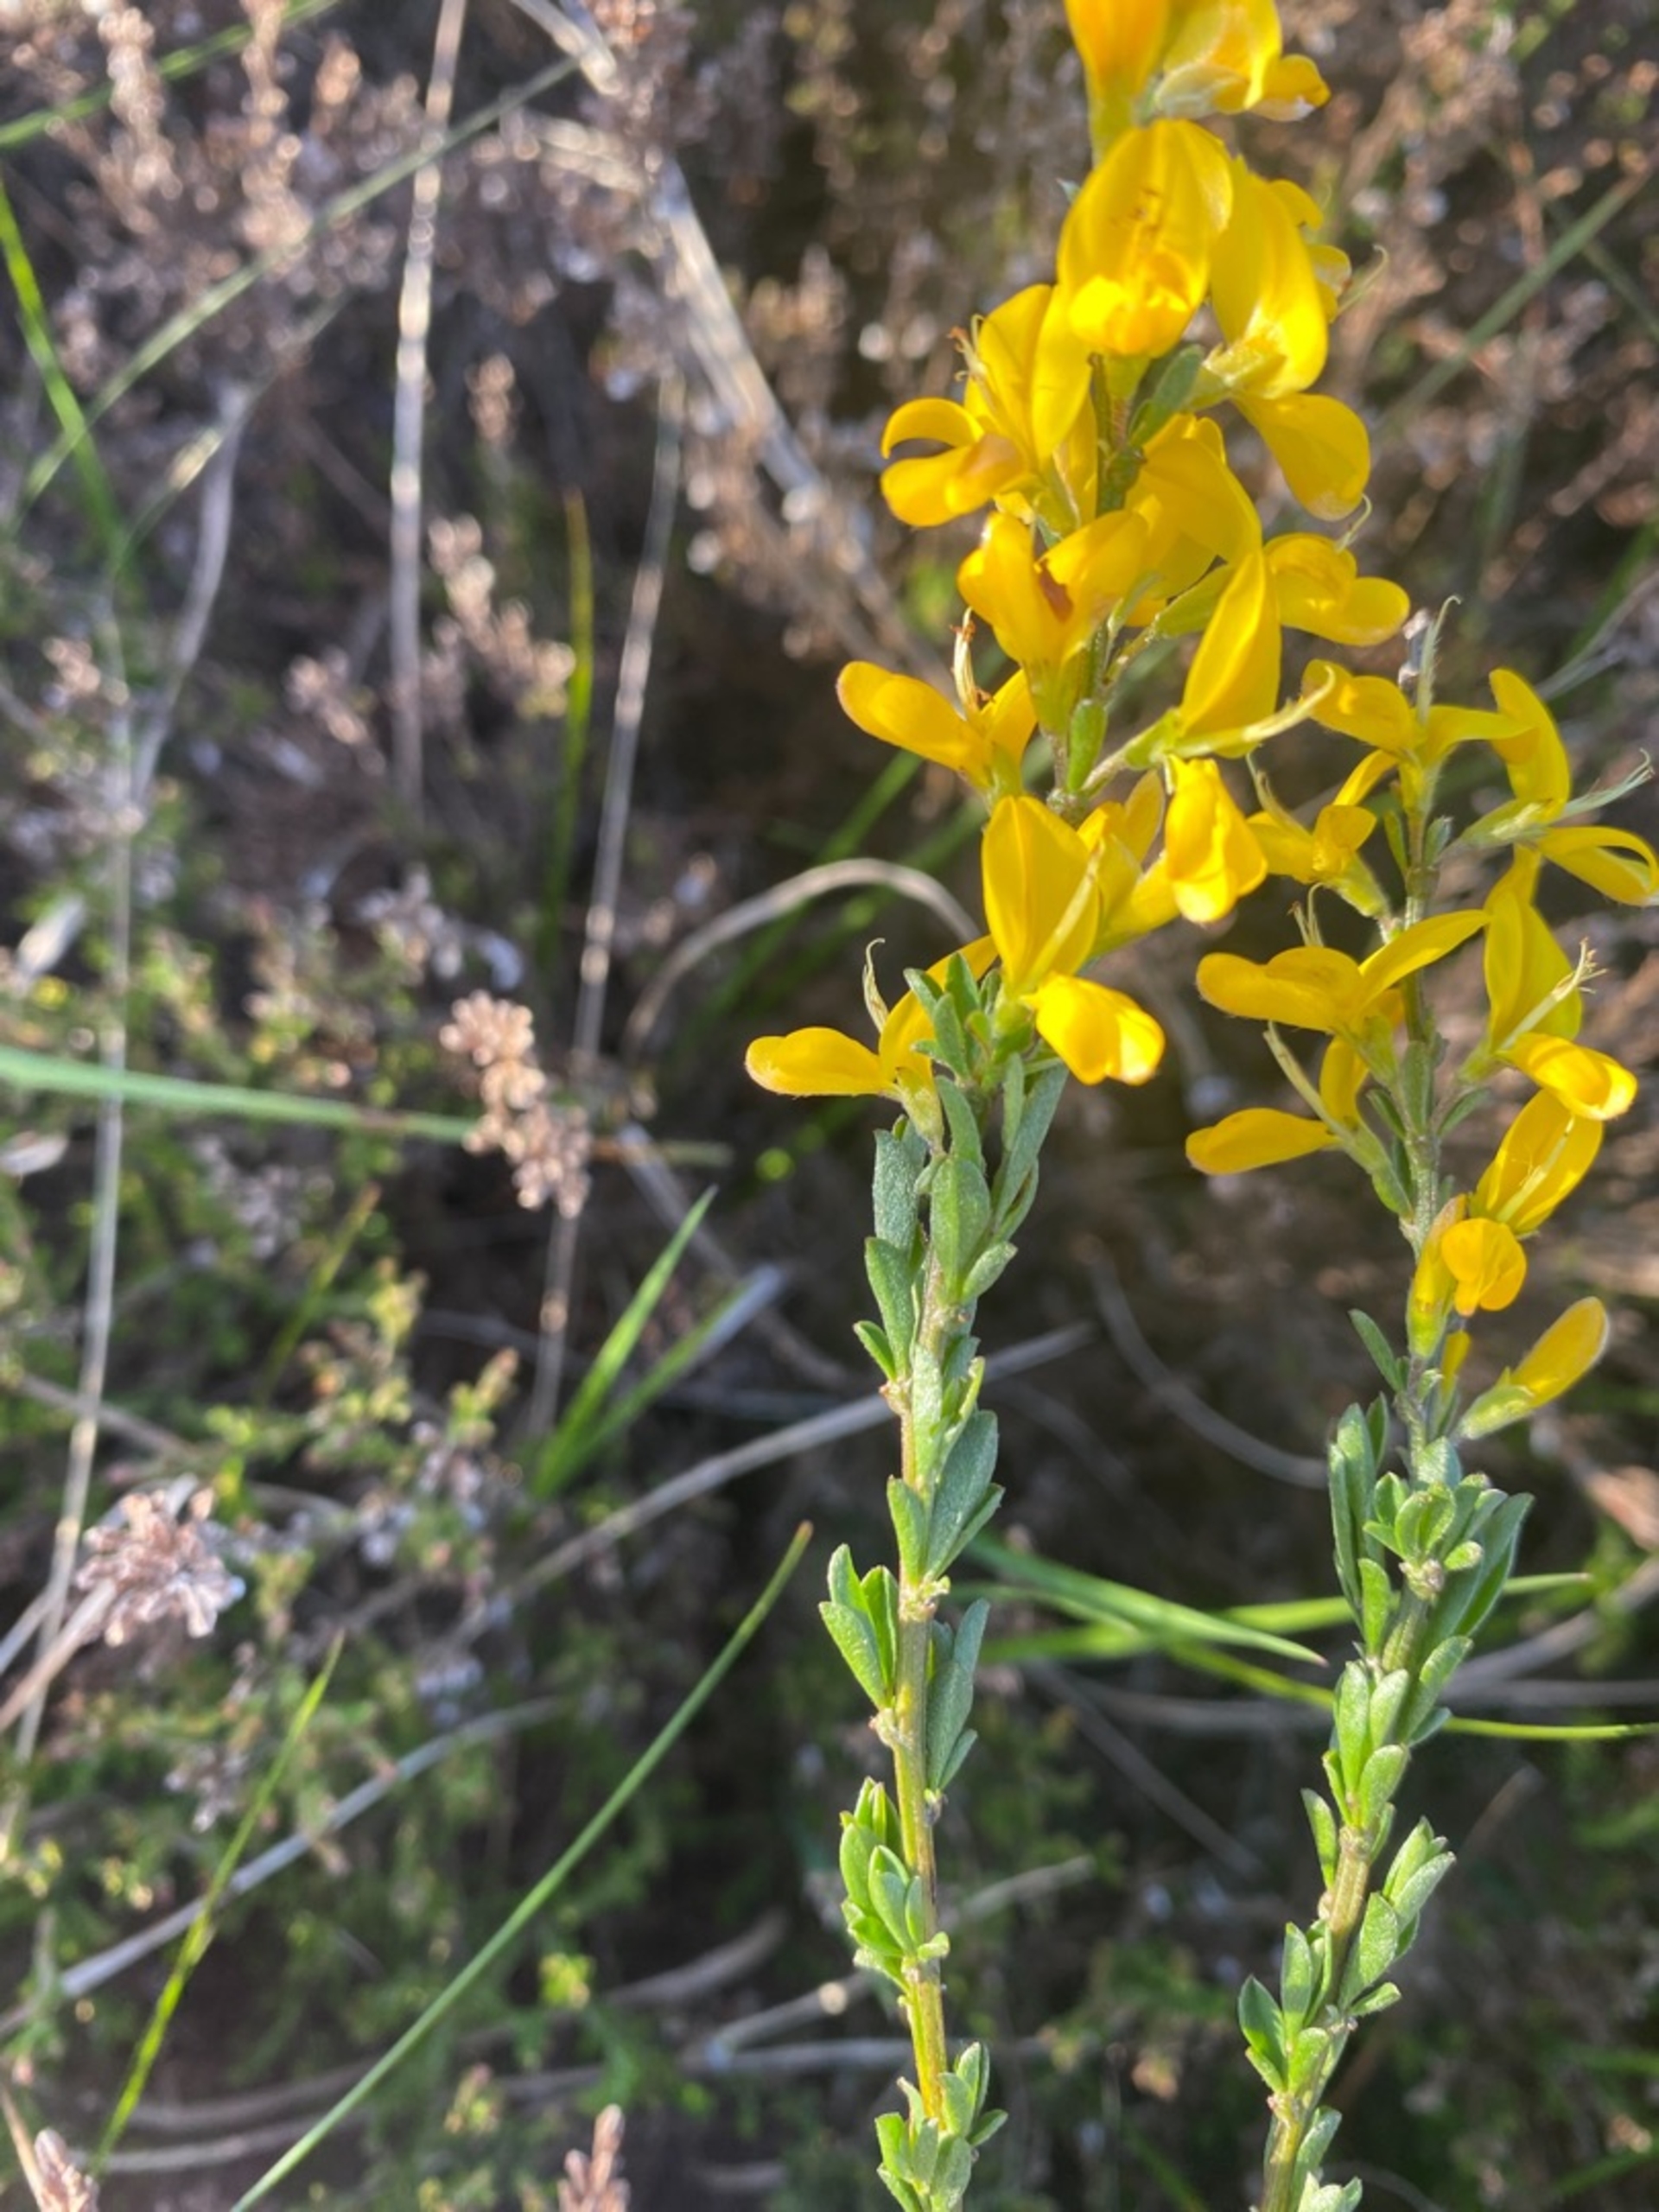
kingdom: Plantae
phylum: Tracheophyta
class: Magnoliopsida
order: Fabales
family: Fabaceae
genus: Genista
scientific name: Genista pilosa
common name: Håret visse
